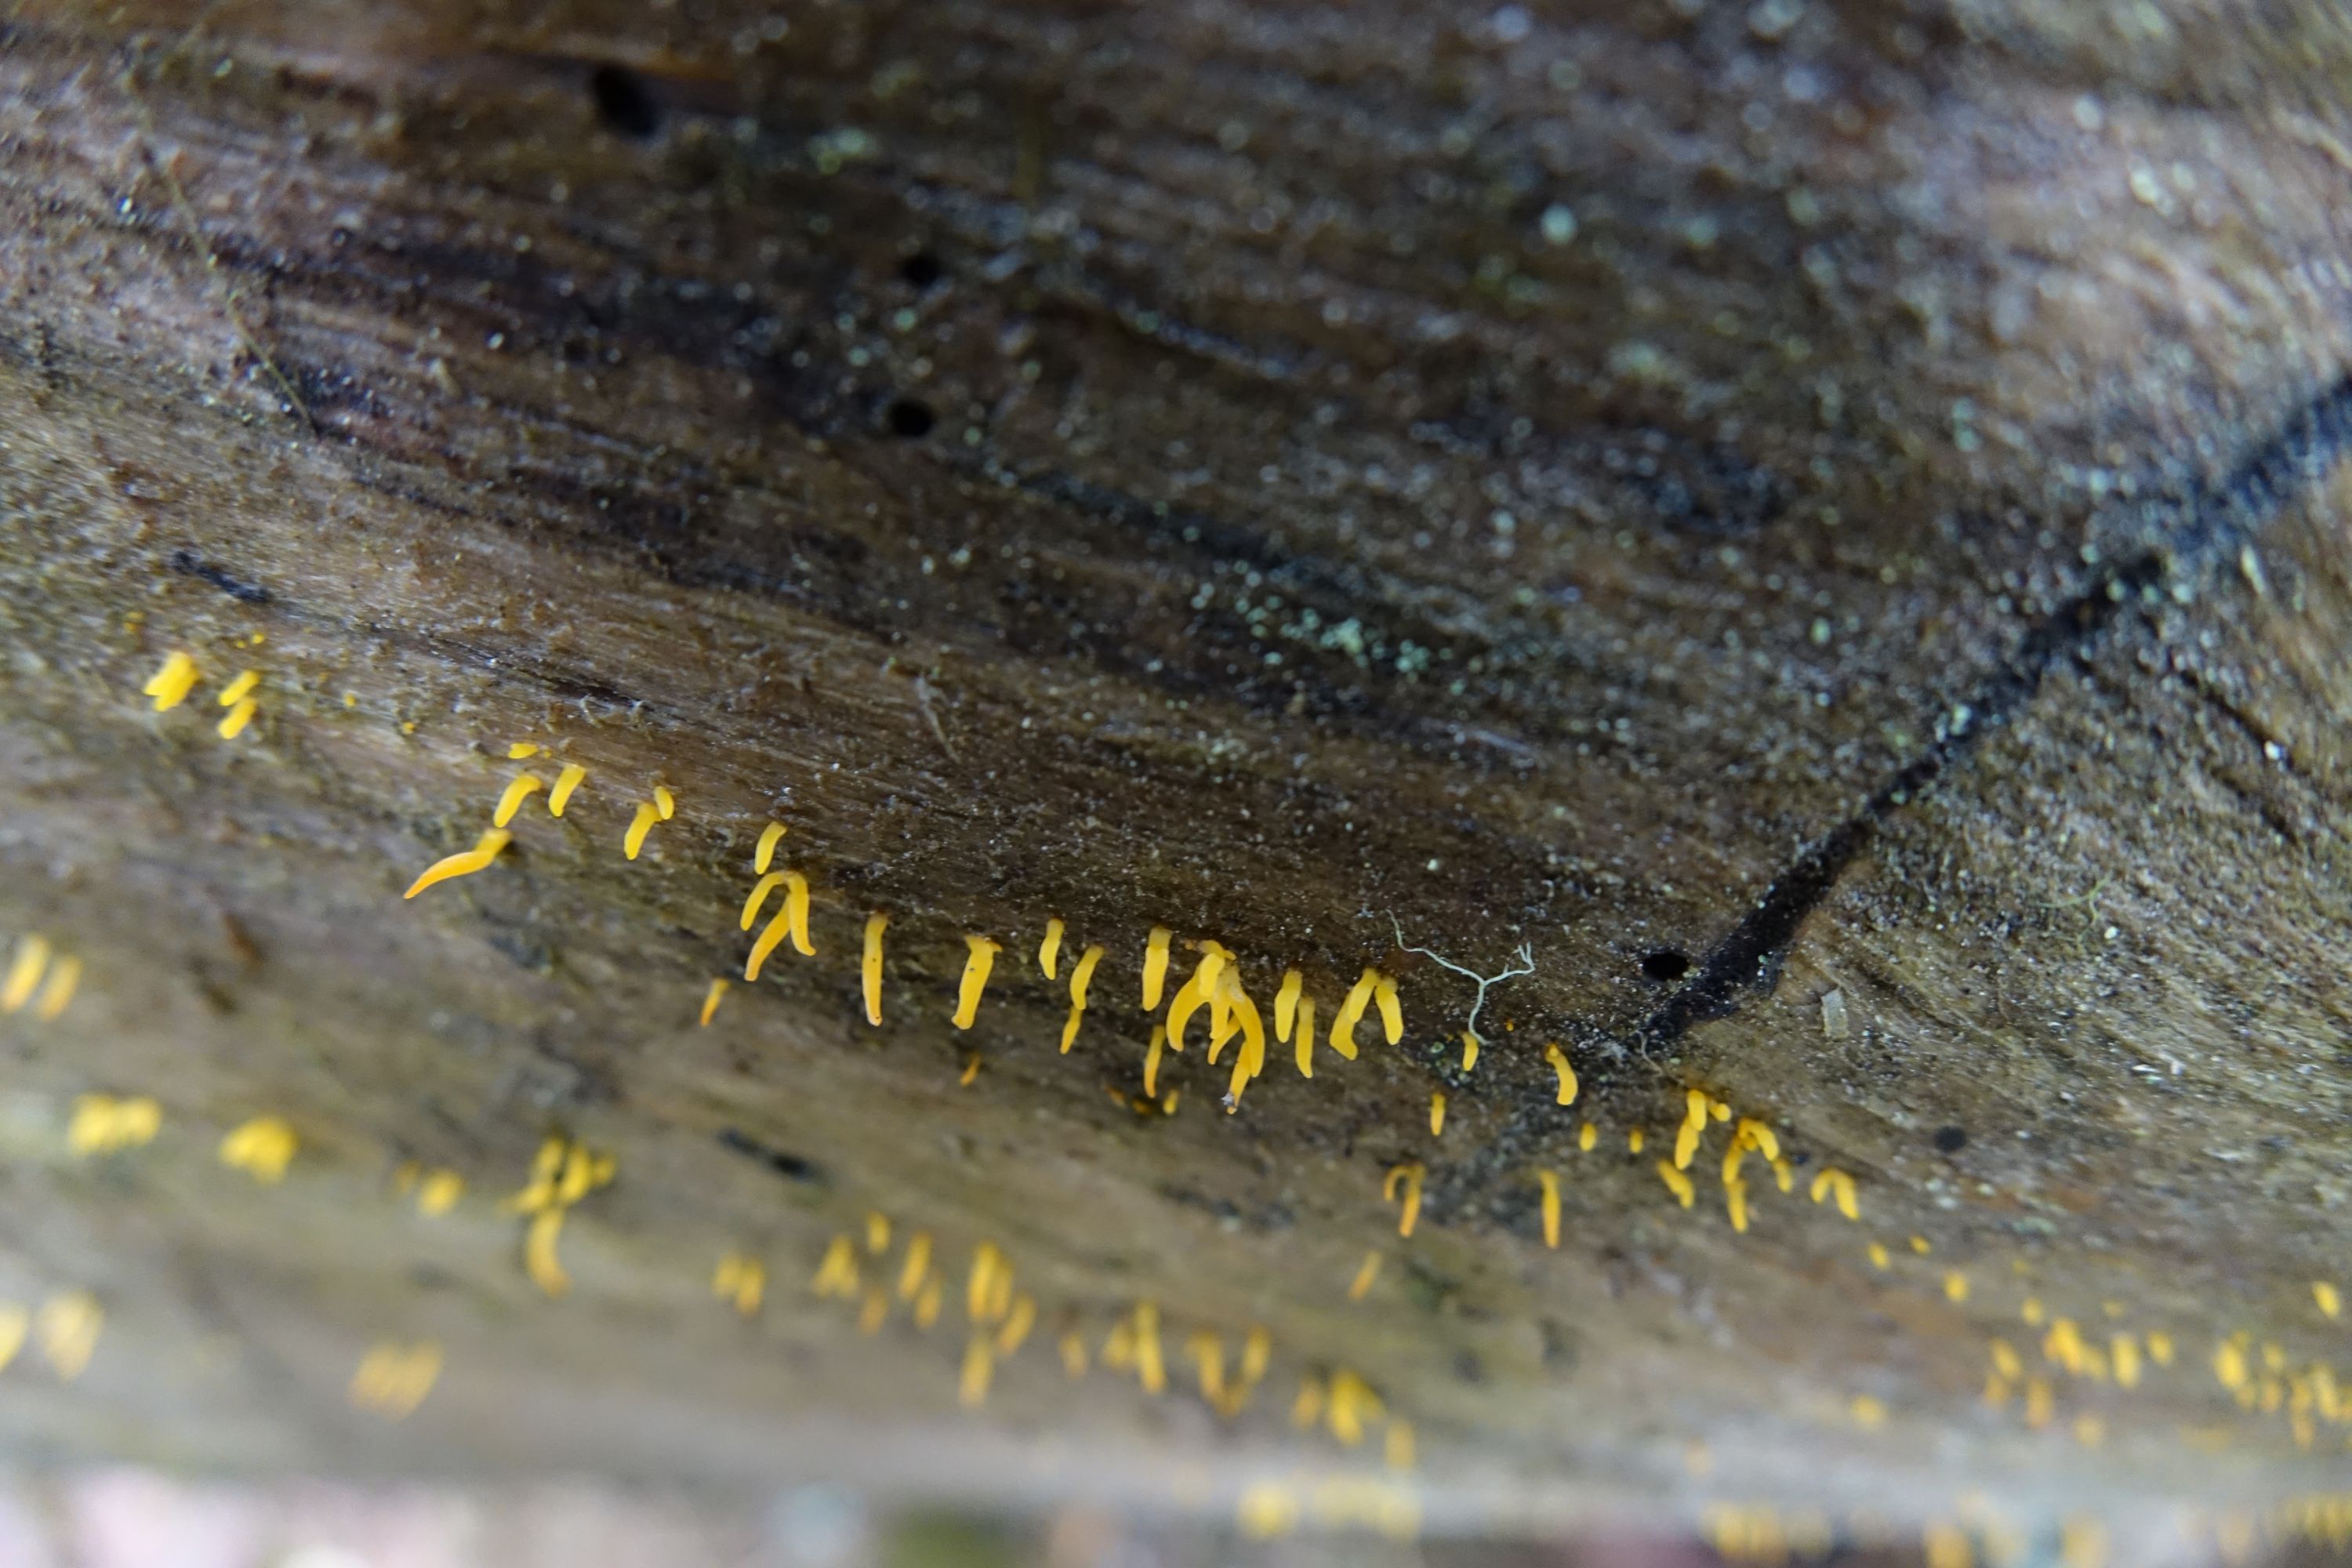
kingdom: Fungi
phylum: Basidiomycota
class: Dacrymycetes
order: Dacrymycetales
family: Dacrymycetaceae
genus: Calocera
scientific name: Calocera furcata
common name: Forked stagshorn
